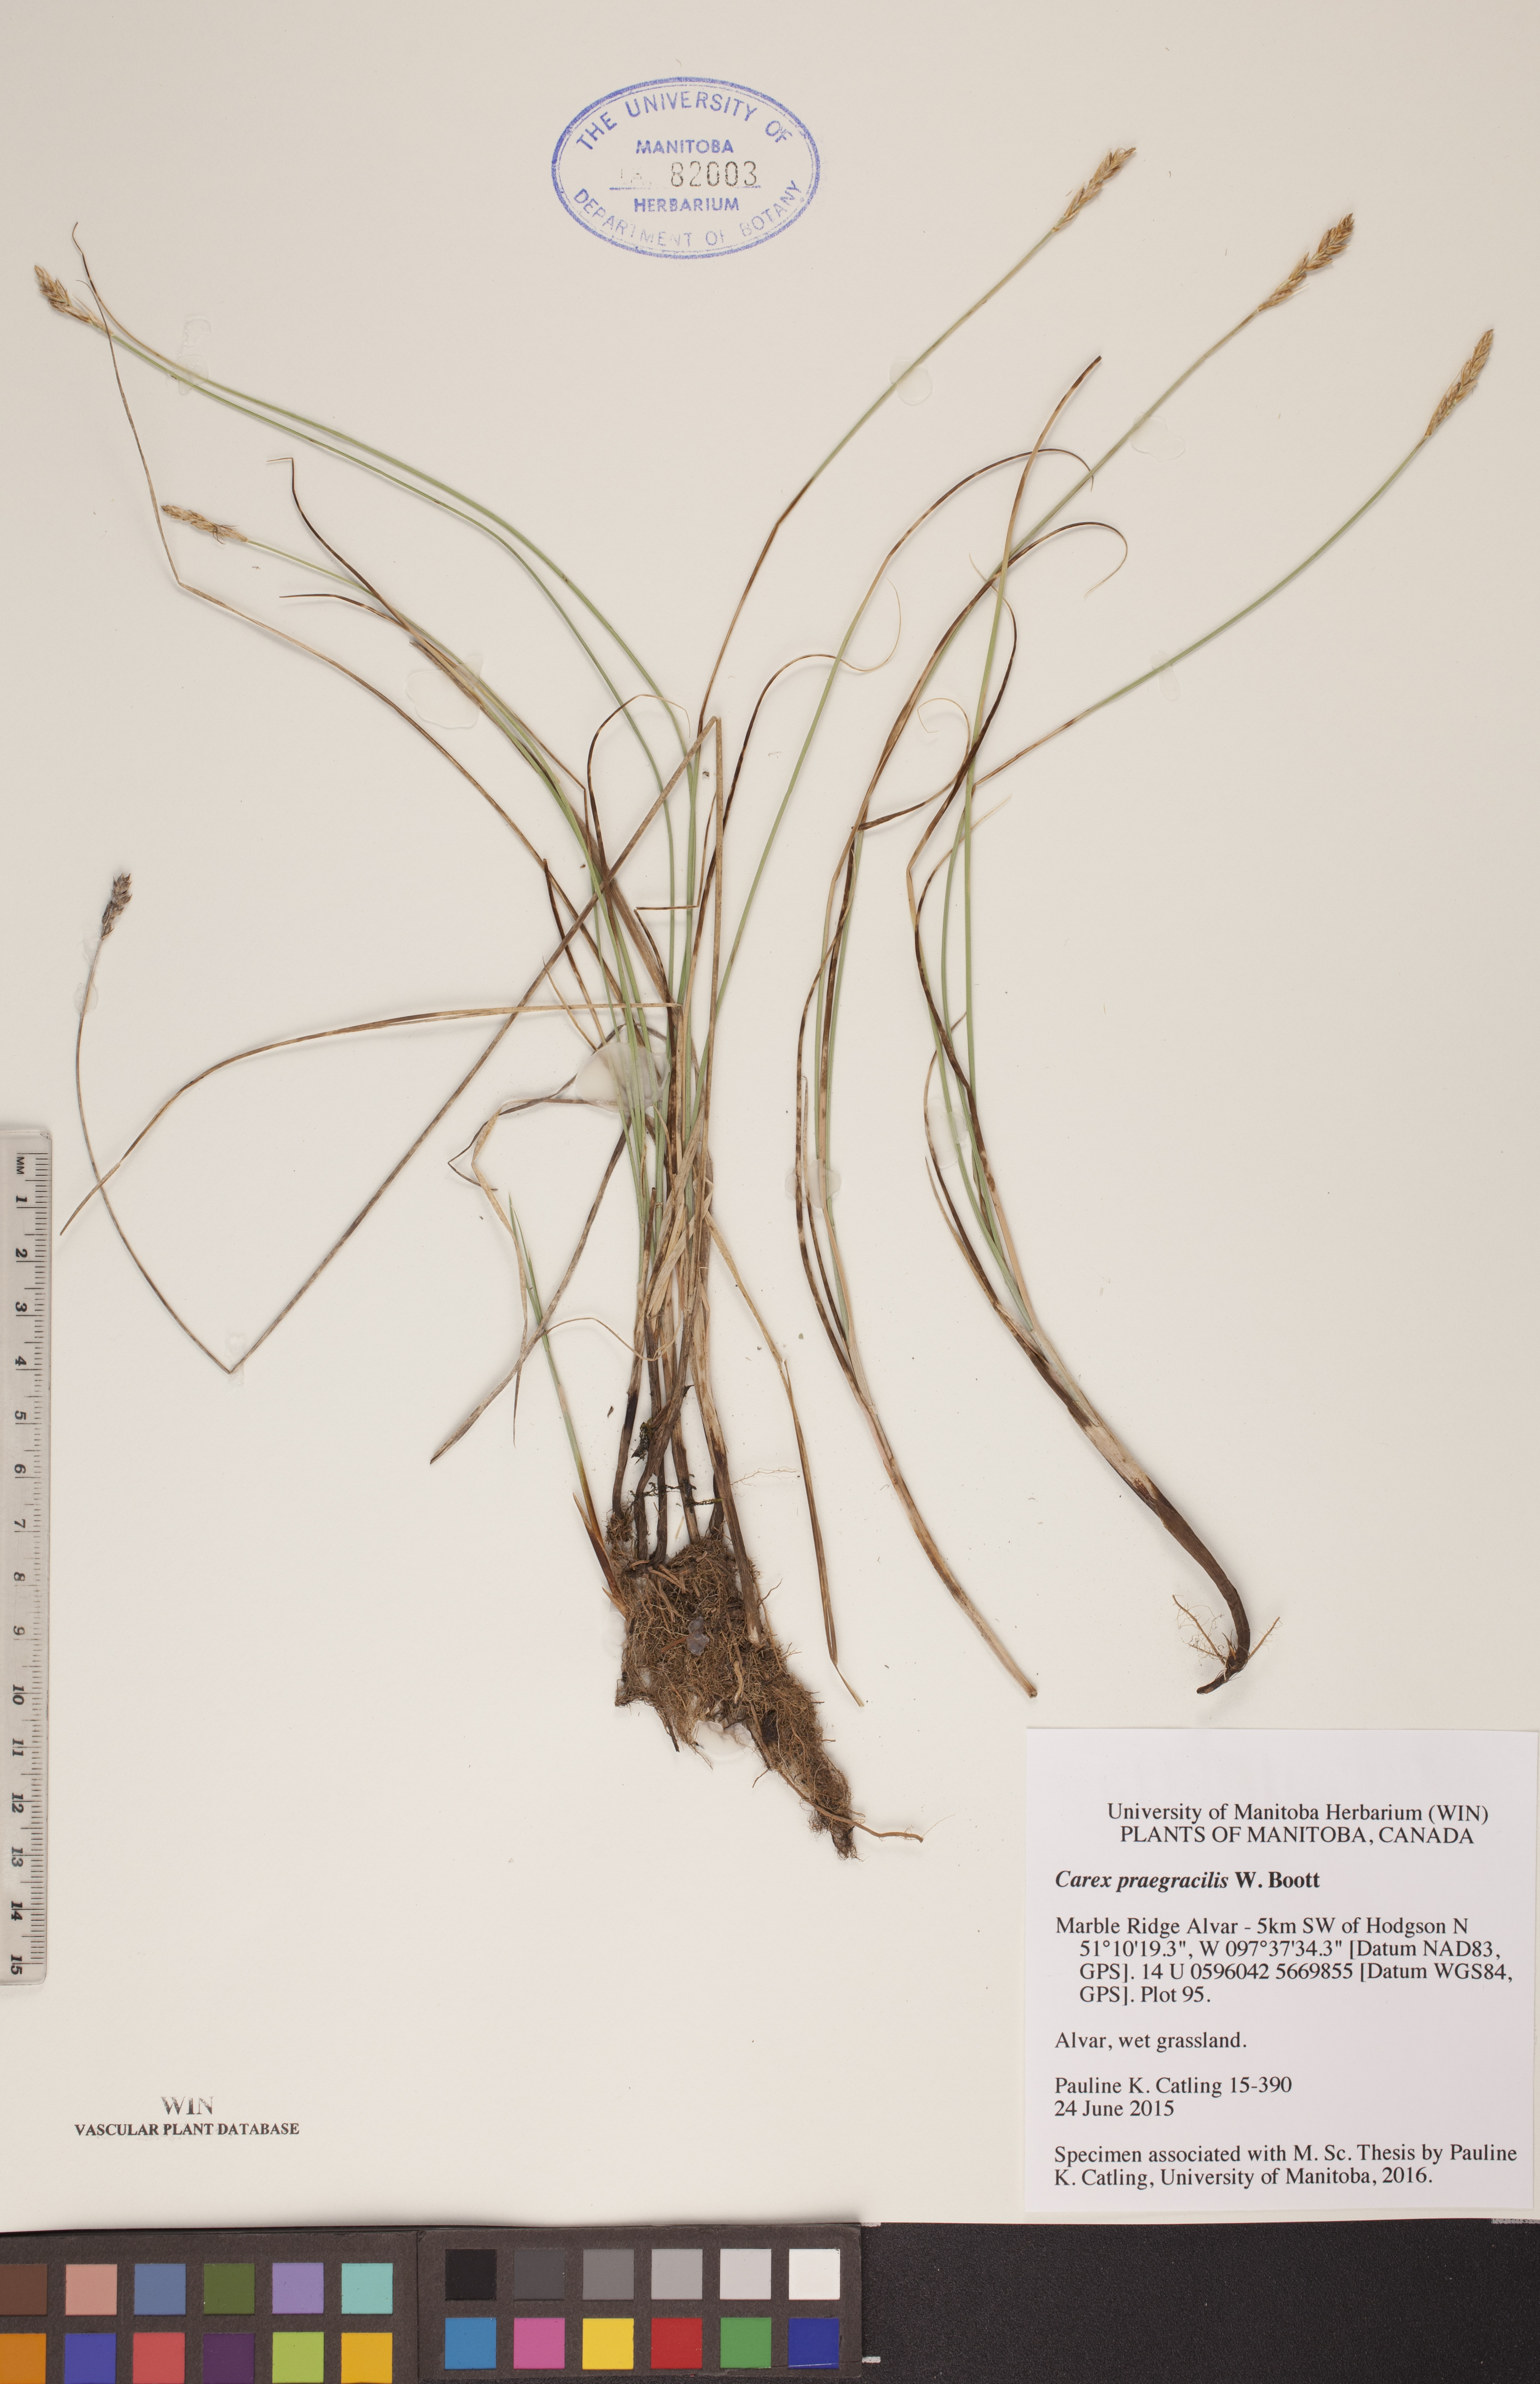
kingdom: Plantae
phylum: Tracheophyta
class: Liliopsida
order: Poales
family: Cyperaceae
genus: Carex
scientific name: Carex praegracilis
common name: Black creeper sedge
